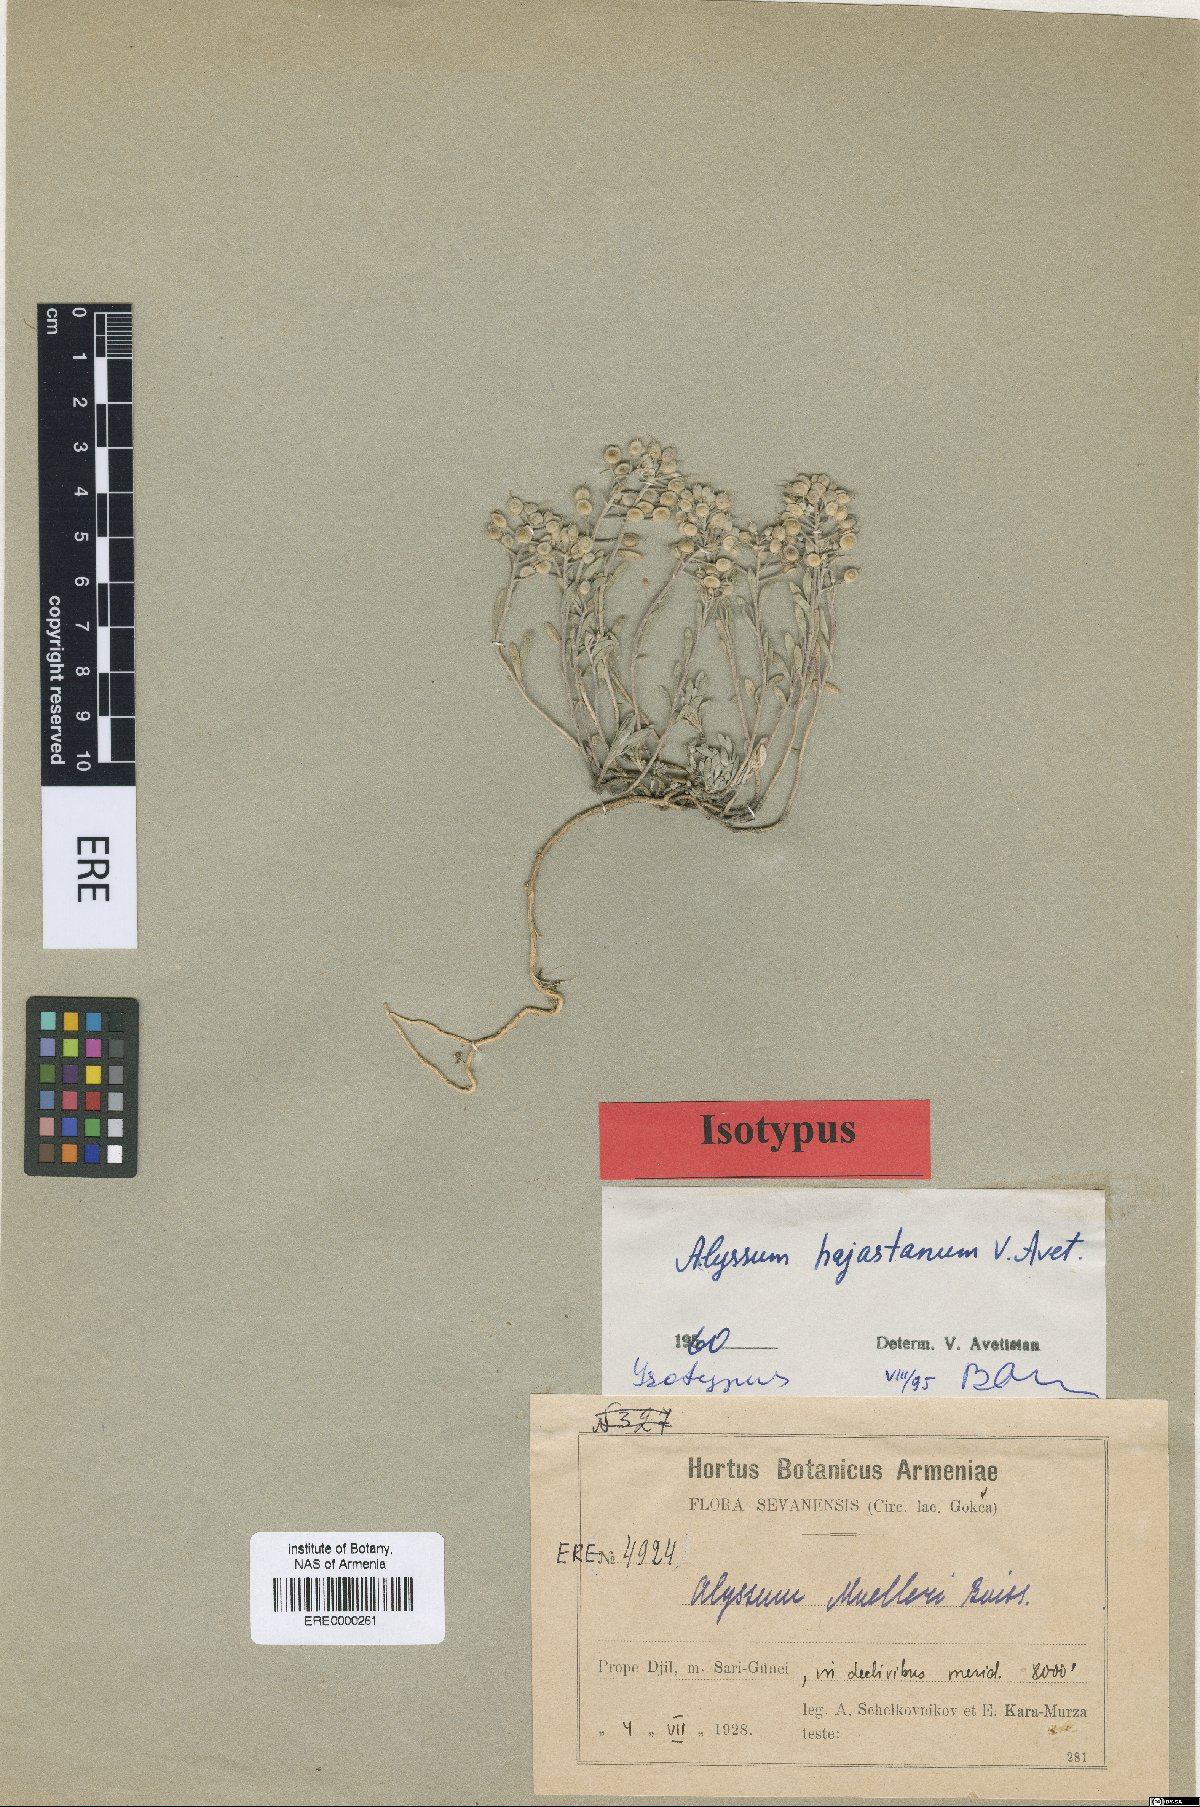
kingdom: Plantae
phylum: Tracheophyta
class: Magnoliopsida
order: Brassicales
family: Brassicaceae
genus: Alyssum
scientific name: Alyssum hajastanum
